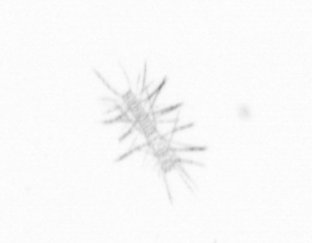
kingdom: Chromista
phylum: Ochrophyta
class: Bacillariophyceae
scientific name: Bacillariophyceae
